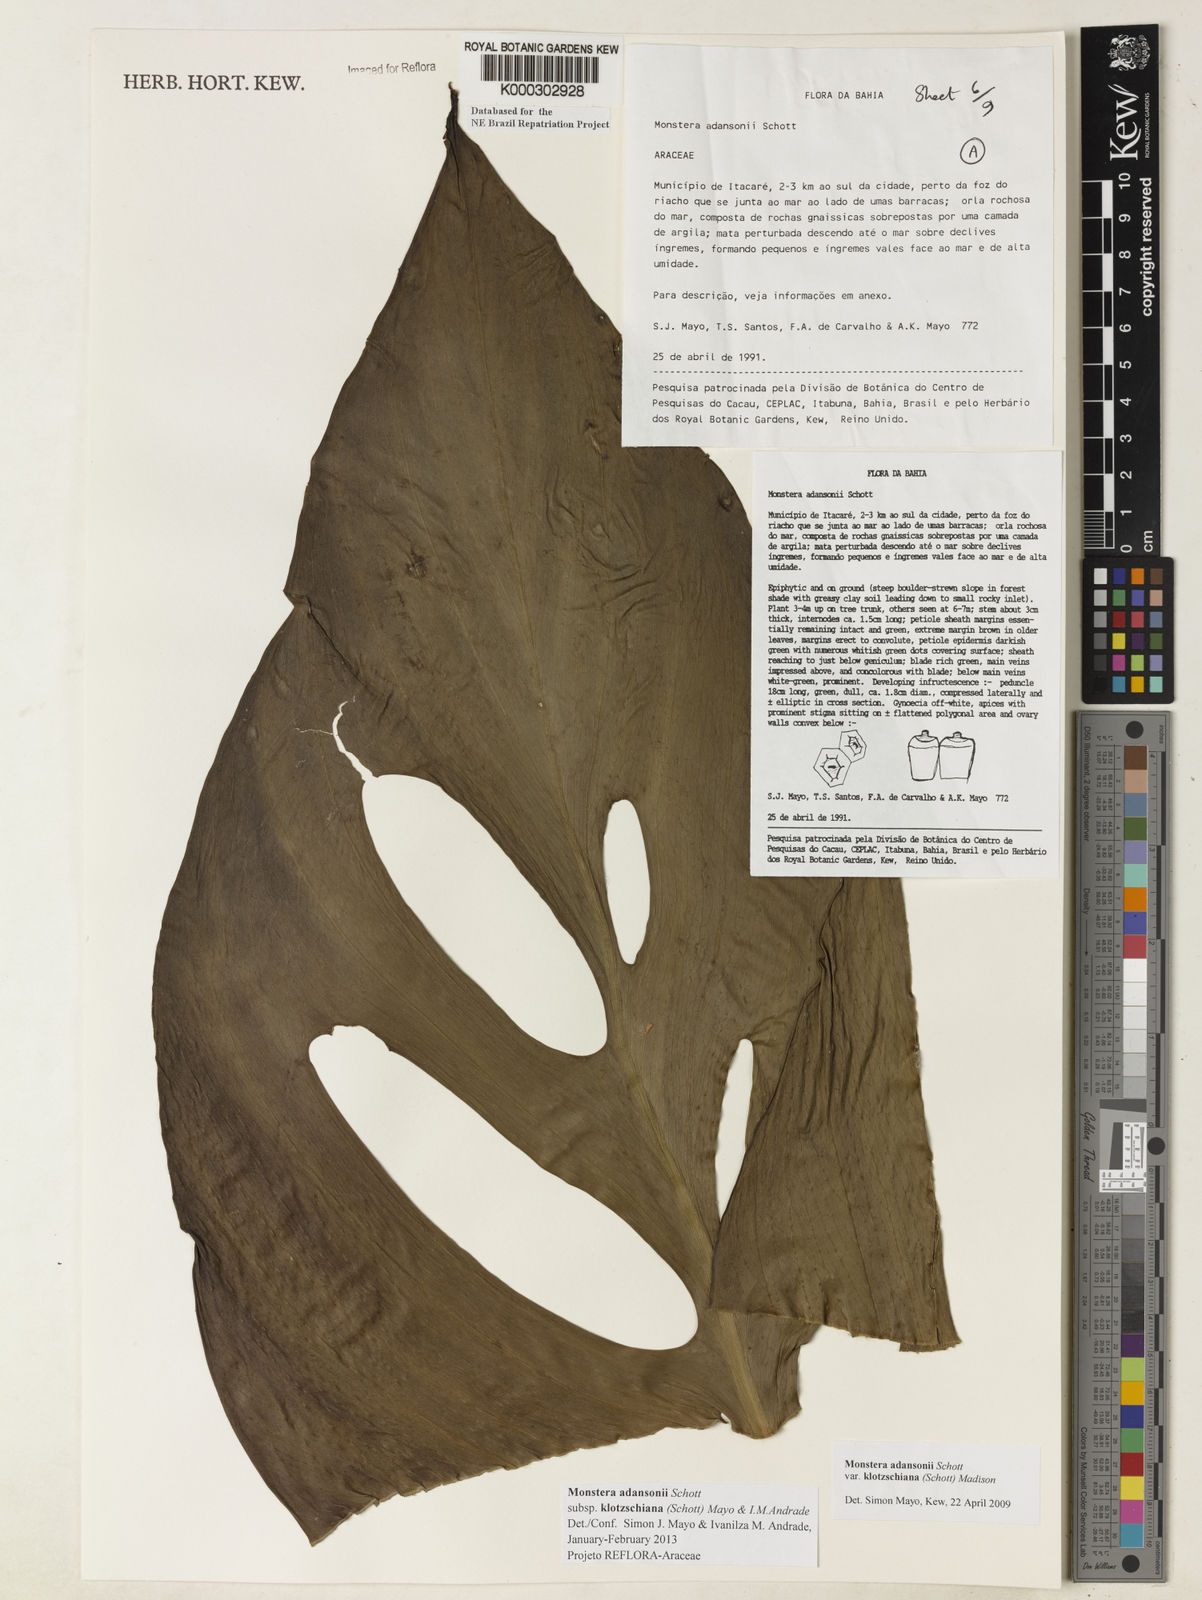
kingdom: Plantae
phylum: Tracheophyta
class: Liliopsida
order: Alismatales
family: Araceae
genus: Monstera
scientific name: Monstera adansonii
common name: Tarovine
